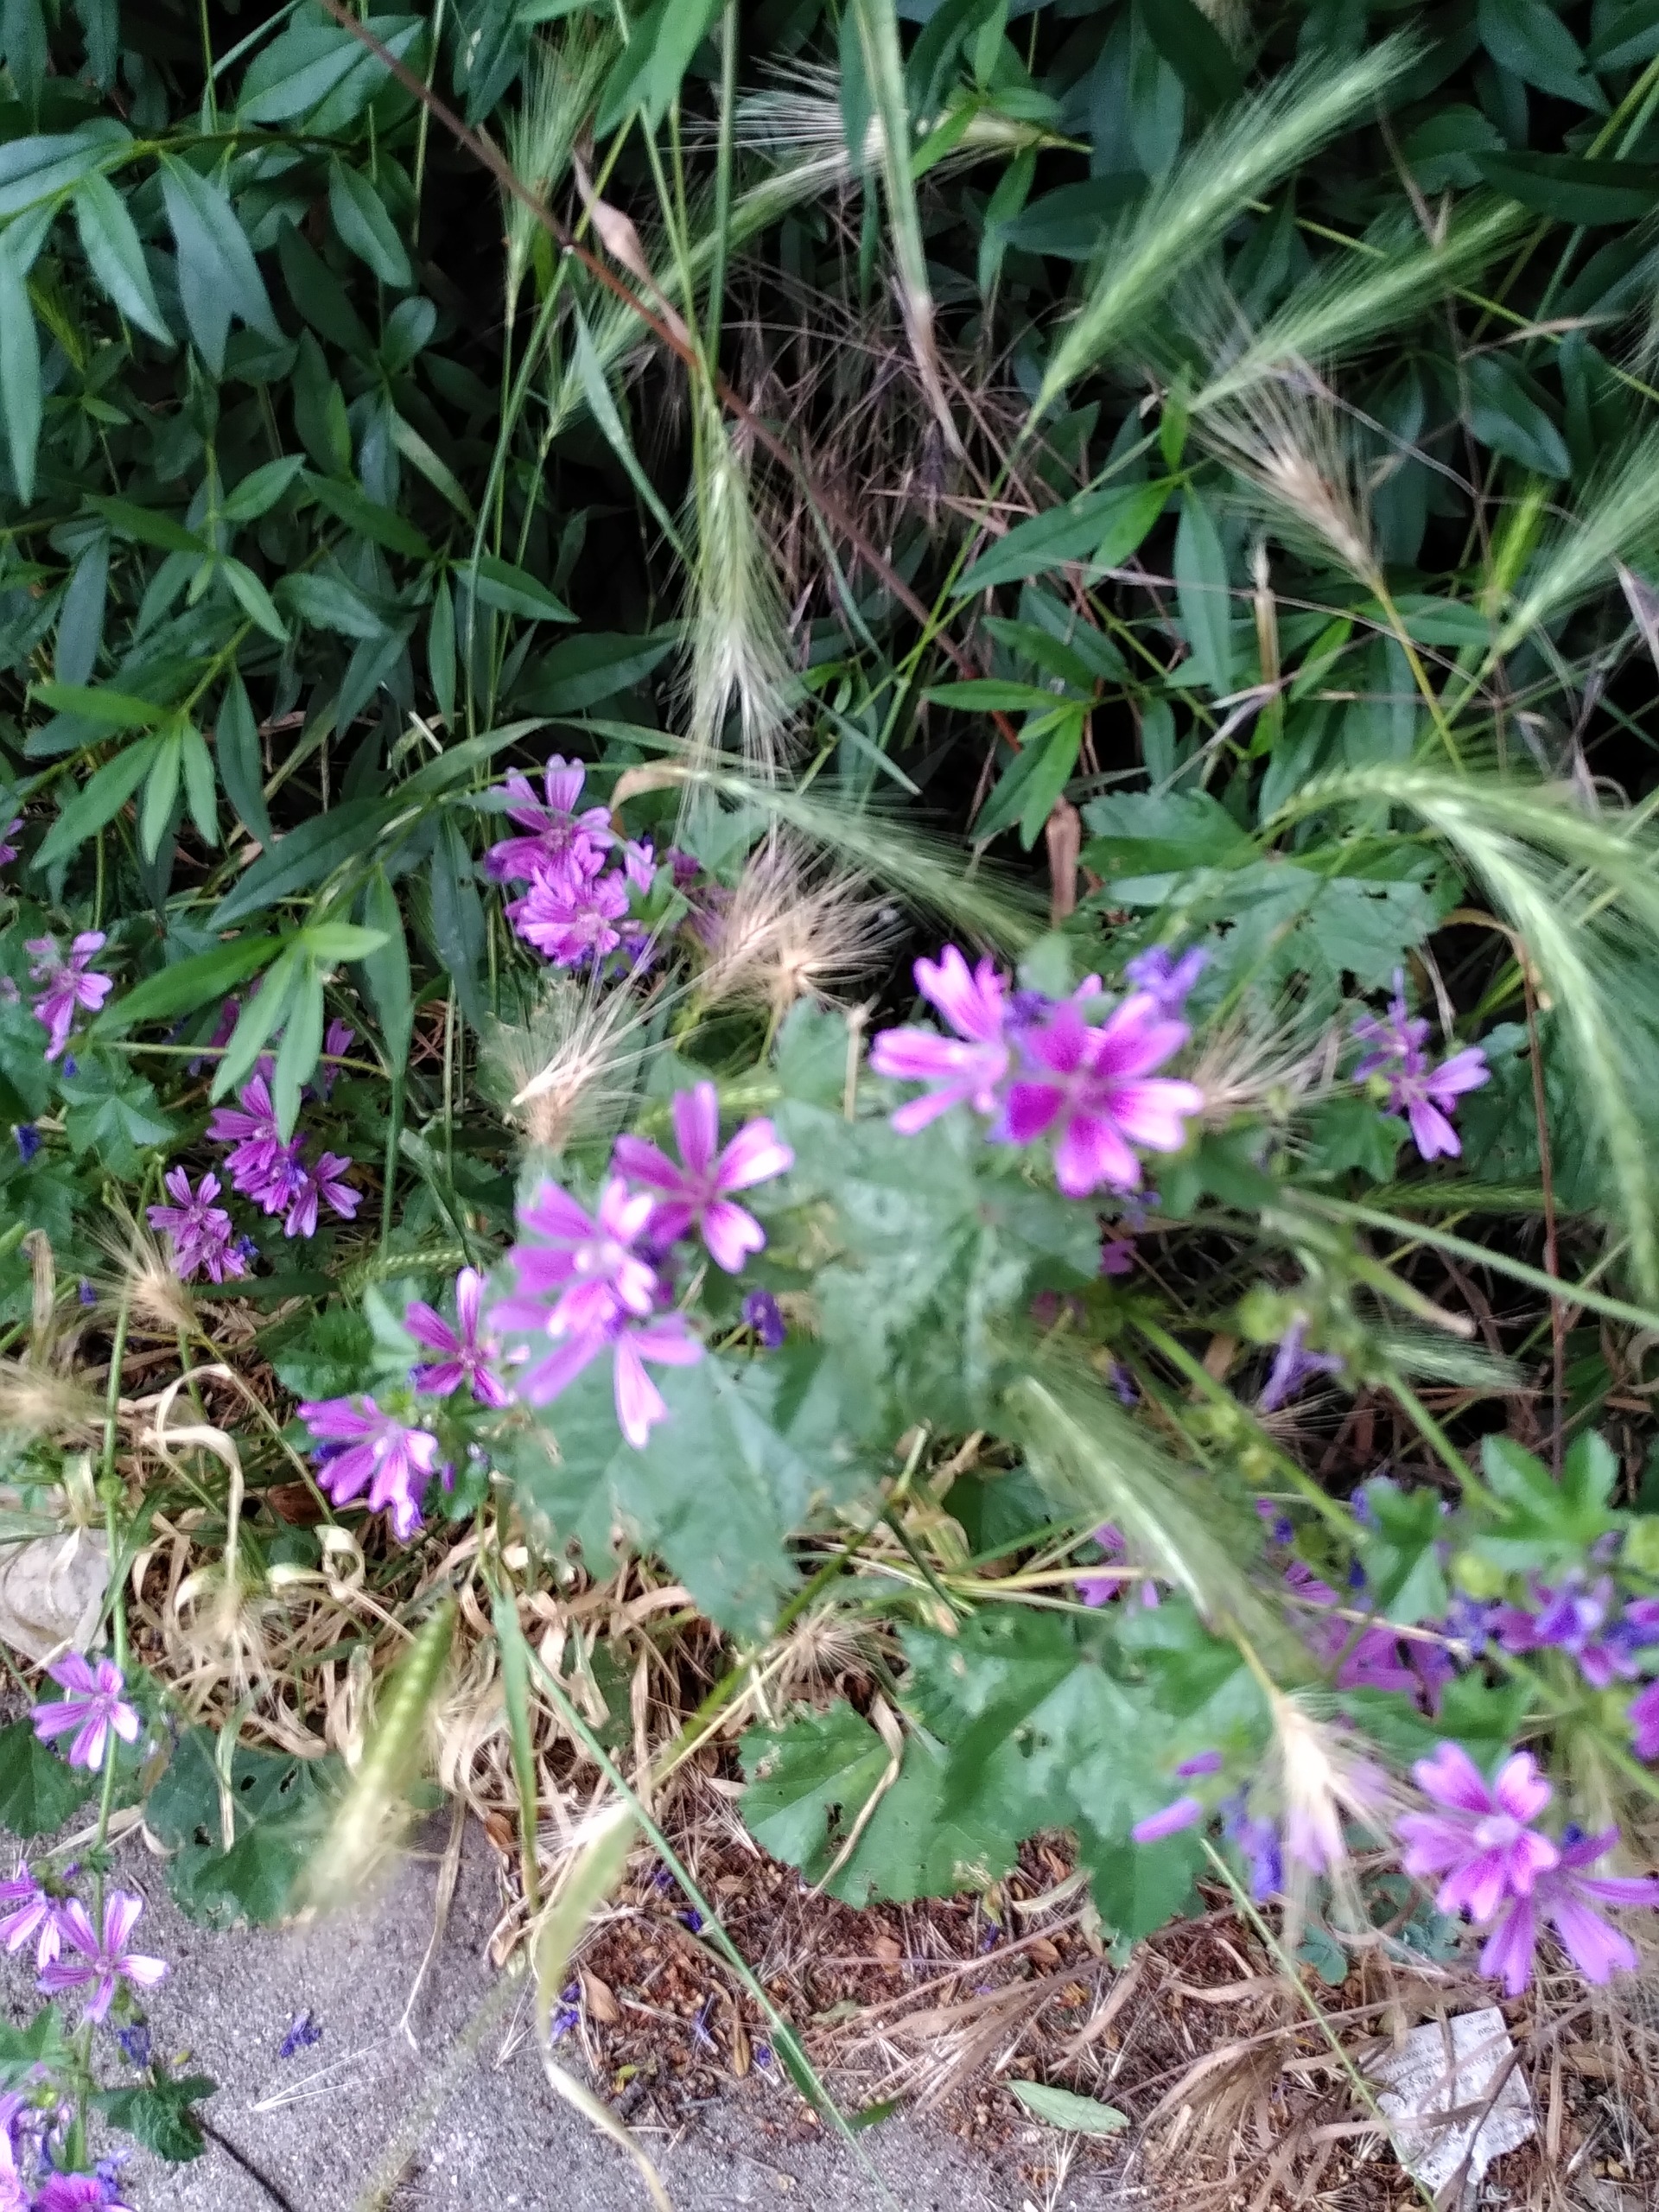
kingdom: Plantae
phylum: Tracheophyta
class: Magnoliopsida
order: Malvales
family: Malvaceae
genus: Malva
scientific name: Malva sylvestris
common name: Almindelig katost
